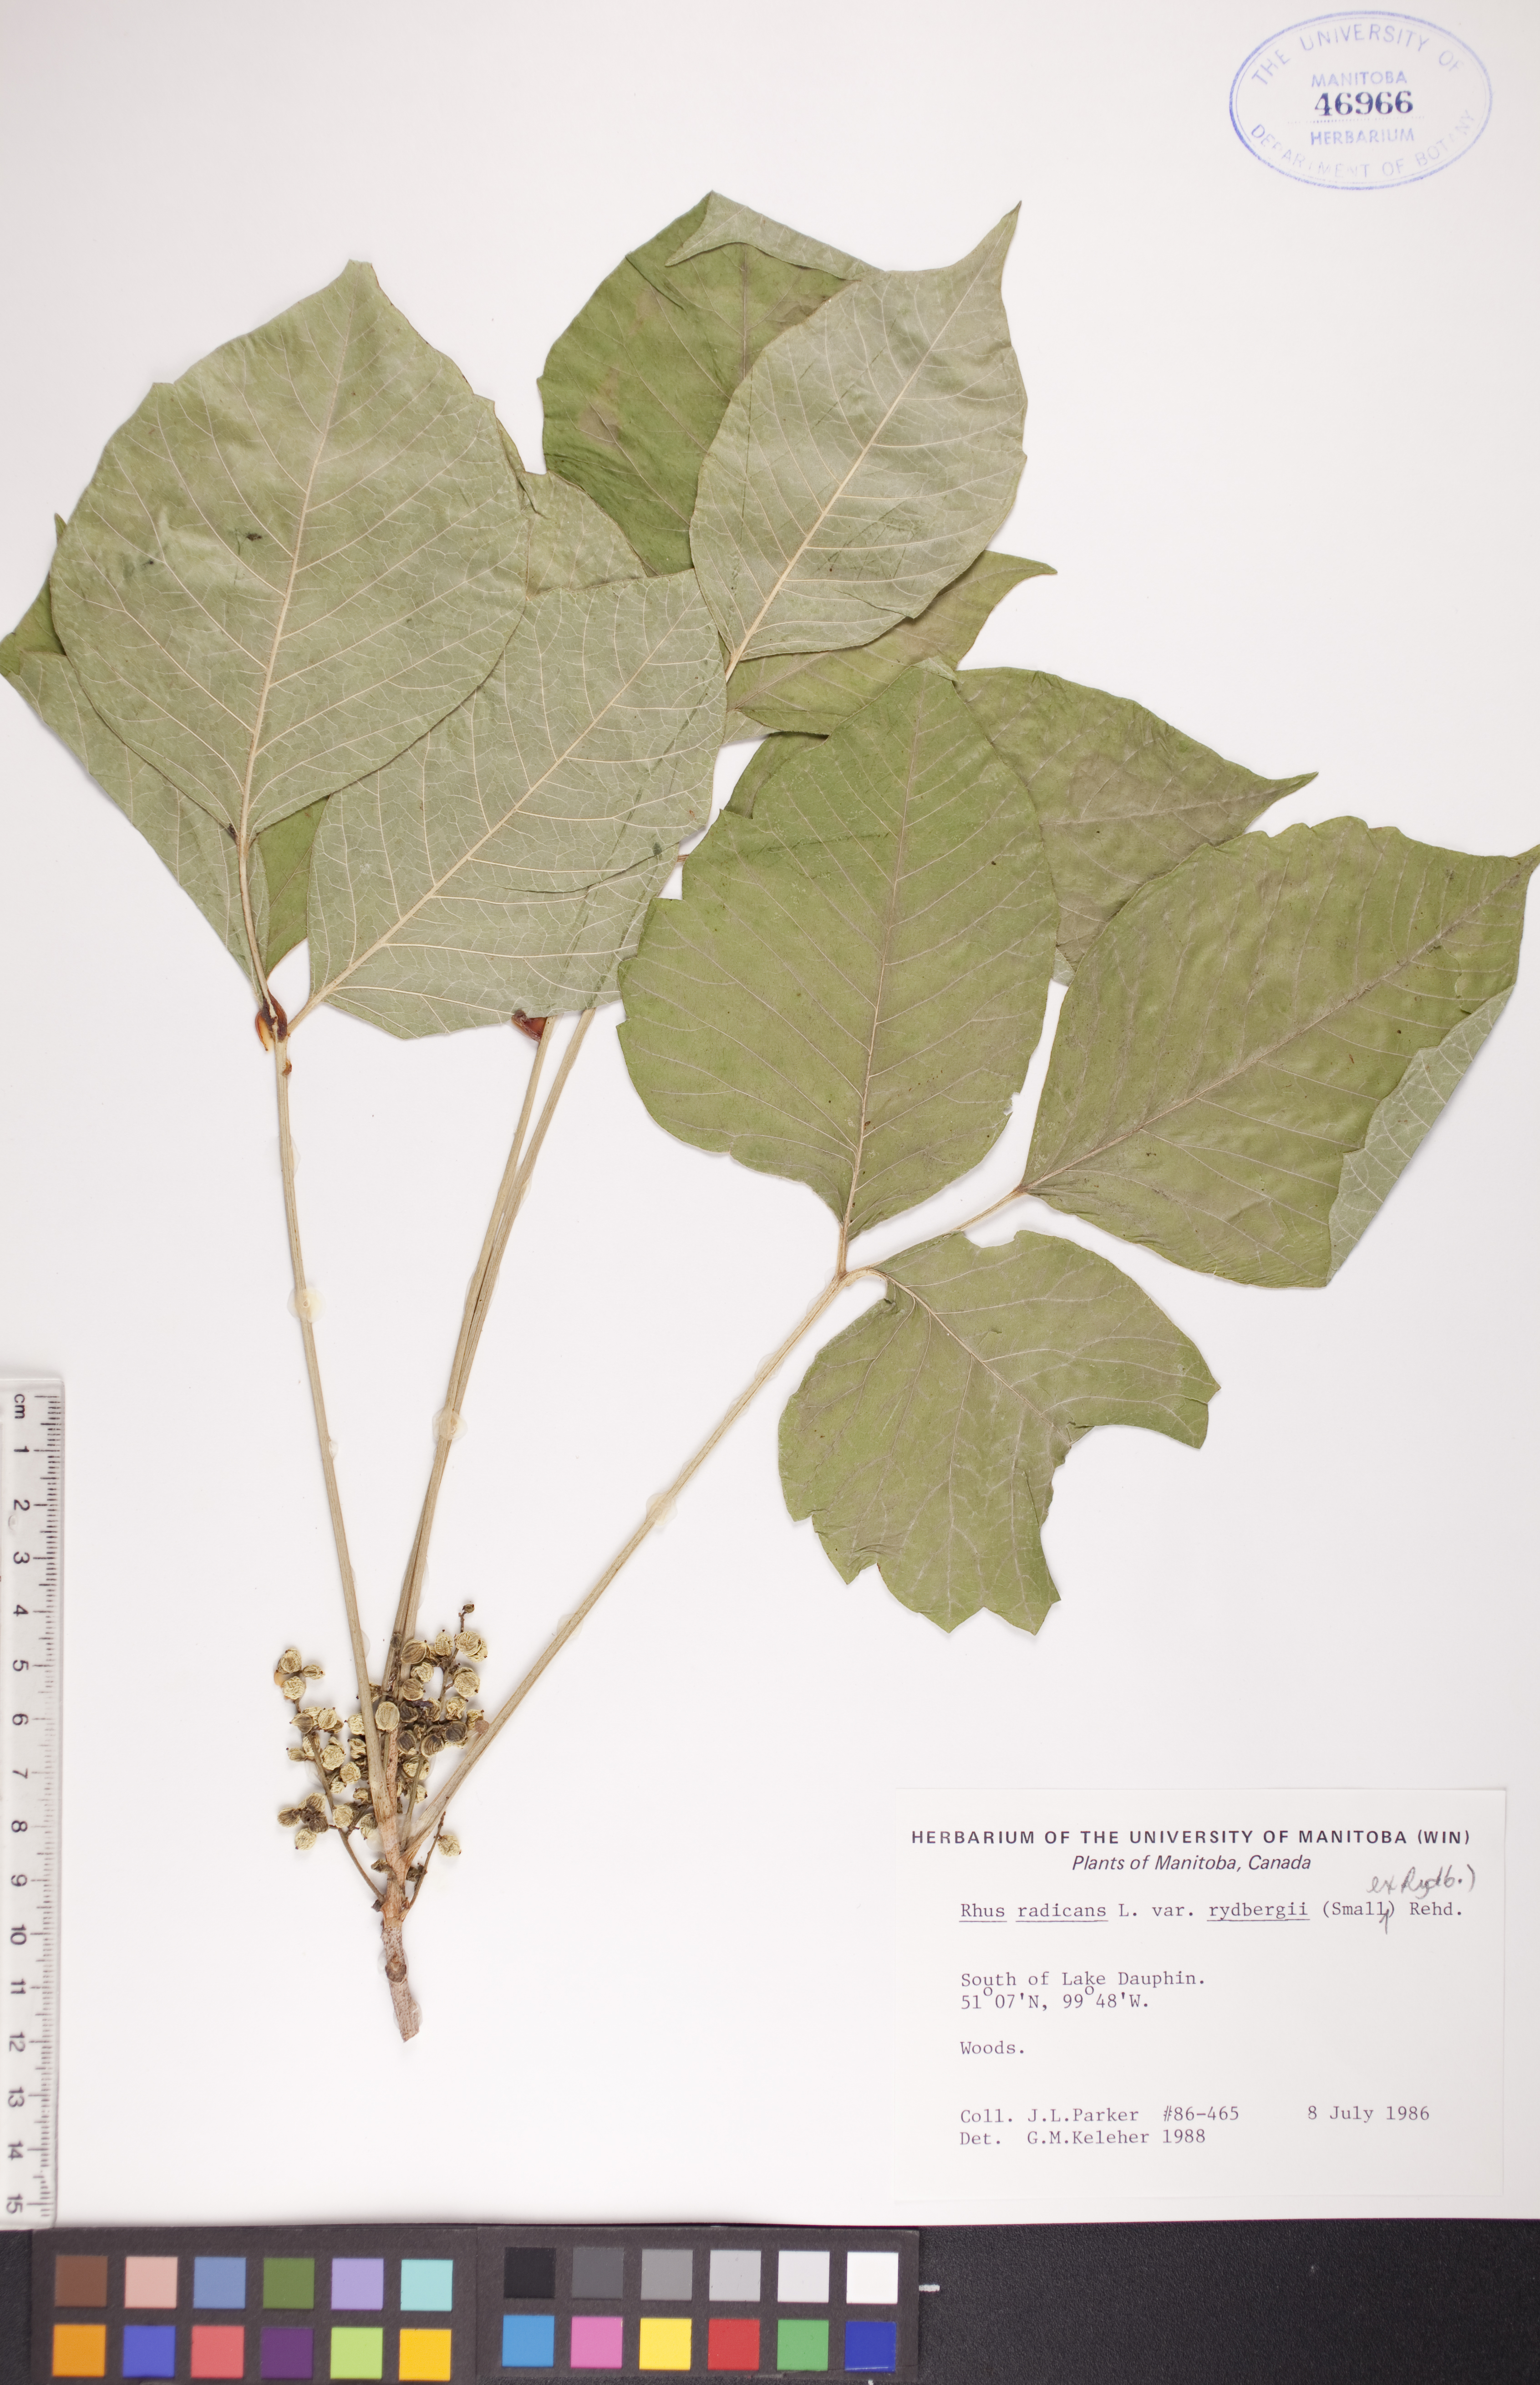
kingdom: Plantae
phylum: Tracheophyta
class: Magnoliopsida
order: Sapindales
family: Anacardiaceae
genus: Toxicodendron
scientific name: Toxicodendron rydbergii
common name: Rydberg's poison-ivy
